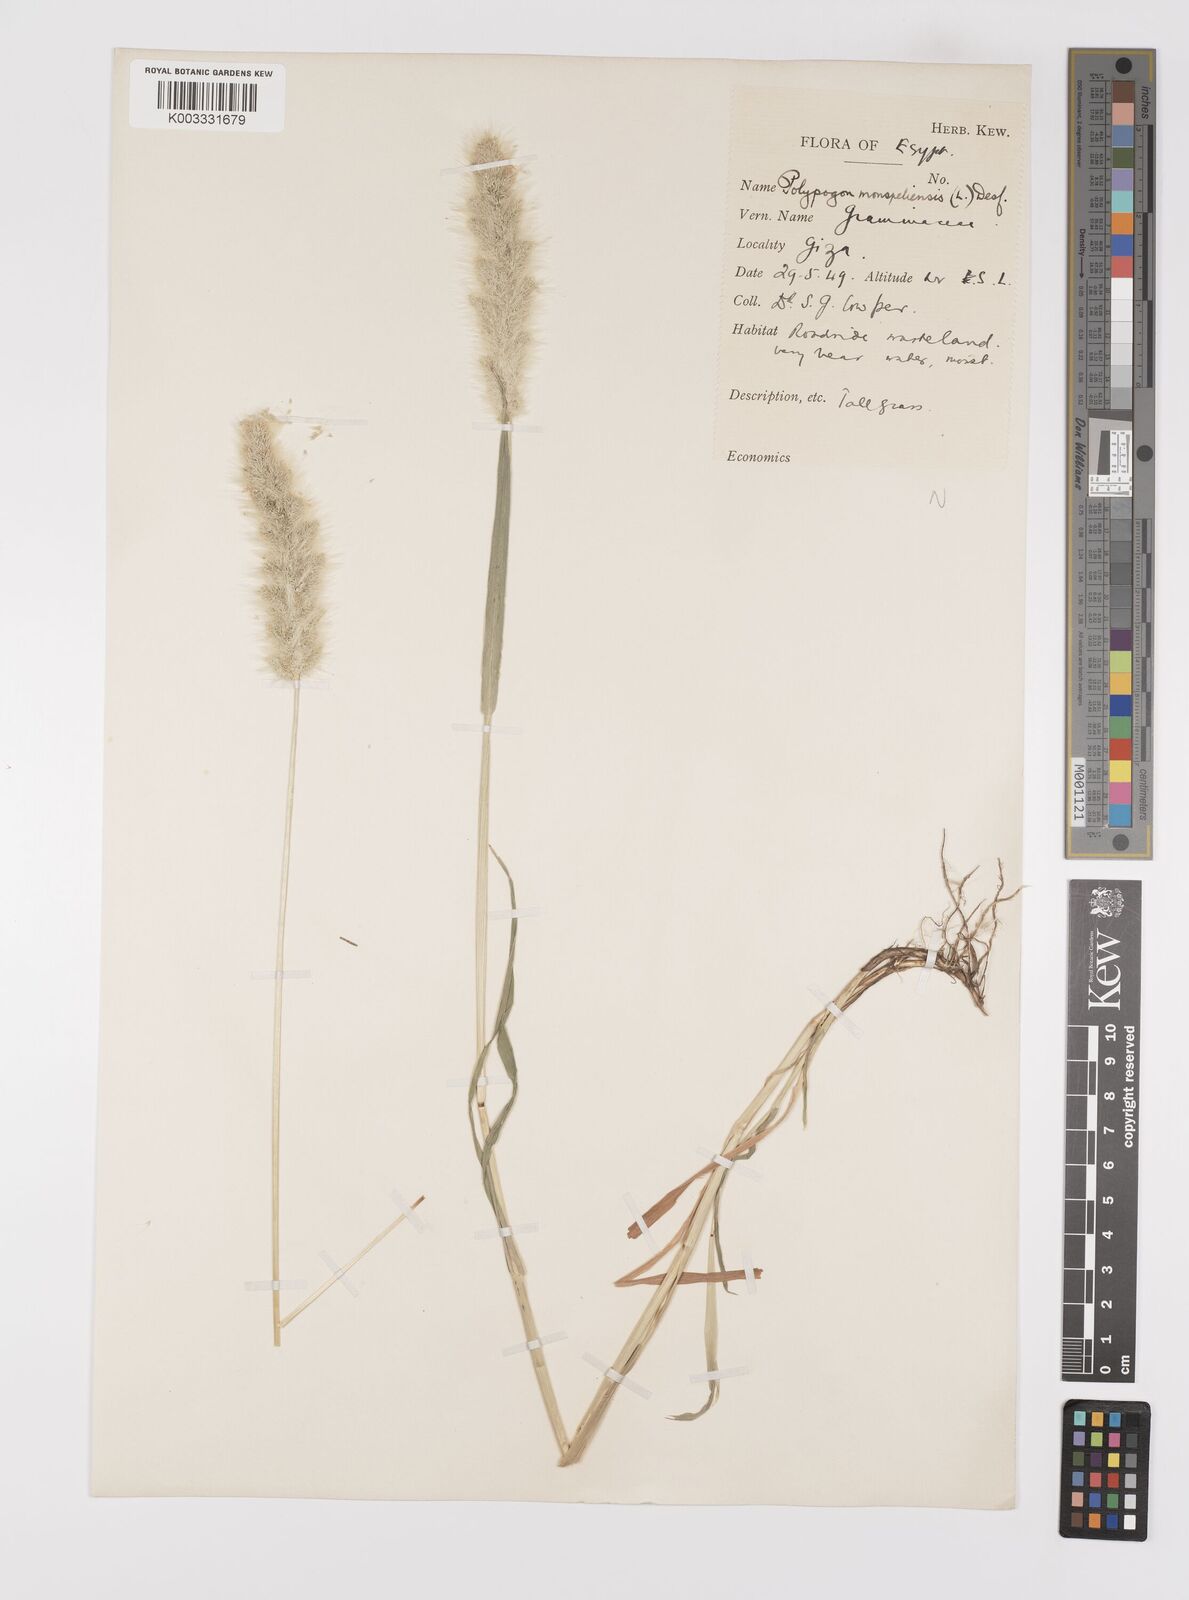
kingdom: Plantae
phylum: Tracheophyta
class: Liliopsida
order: Poales
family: Poaceae
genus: Polypogon
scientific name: Polypogon monspeliensis
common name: Annual rabbitsfoot grass
